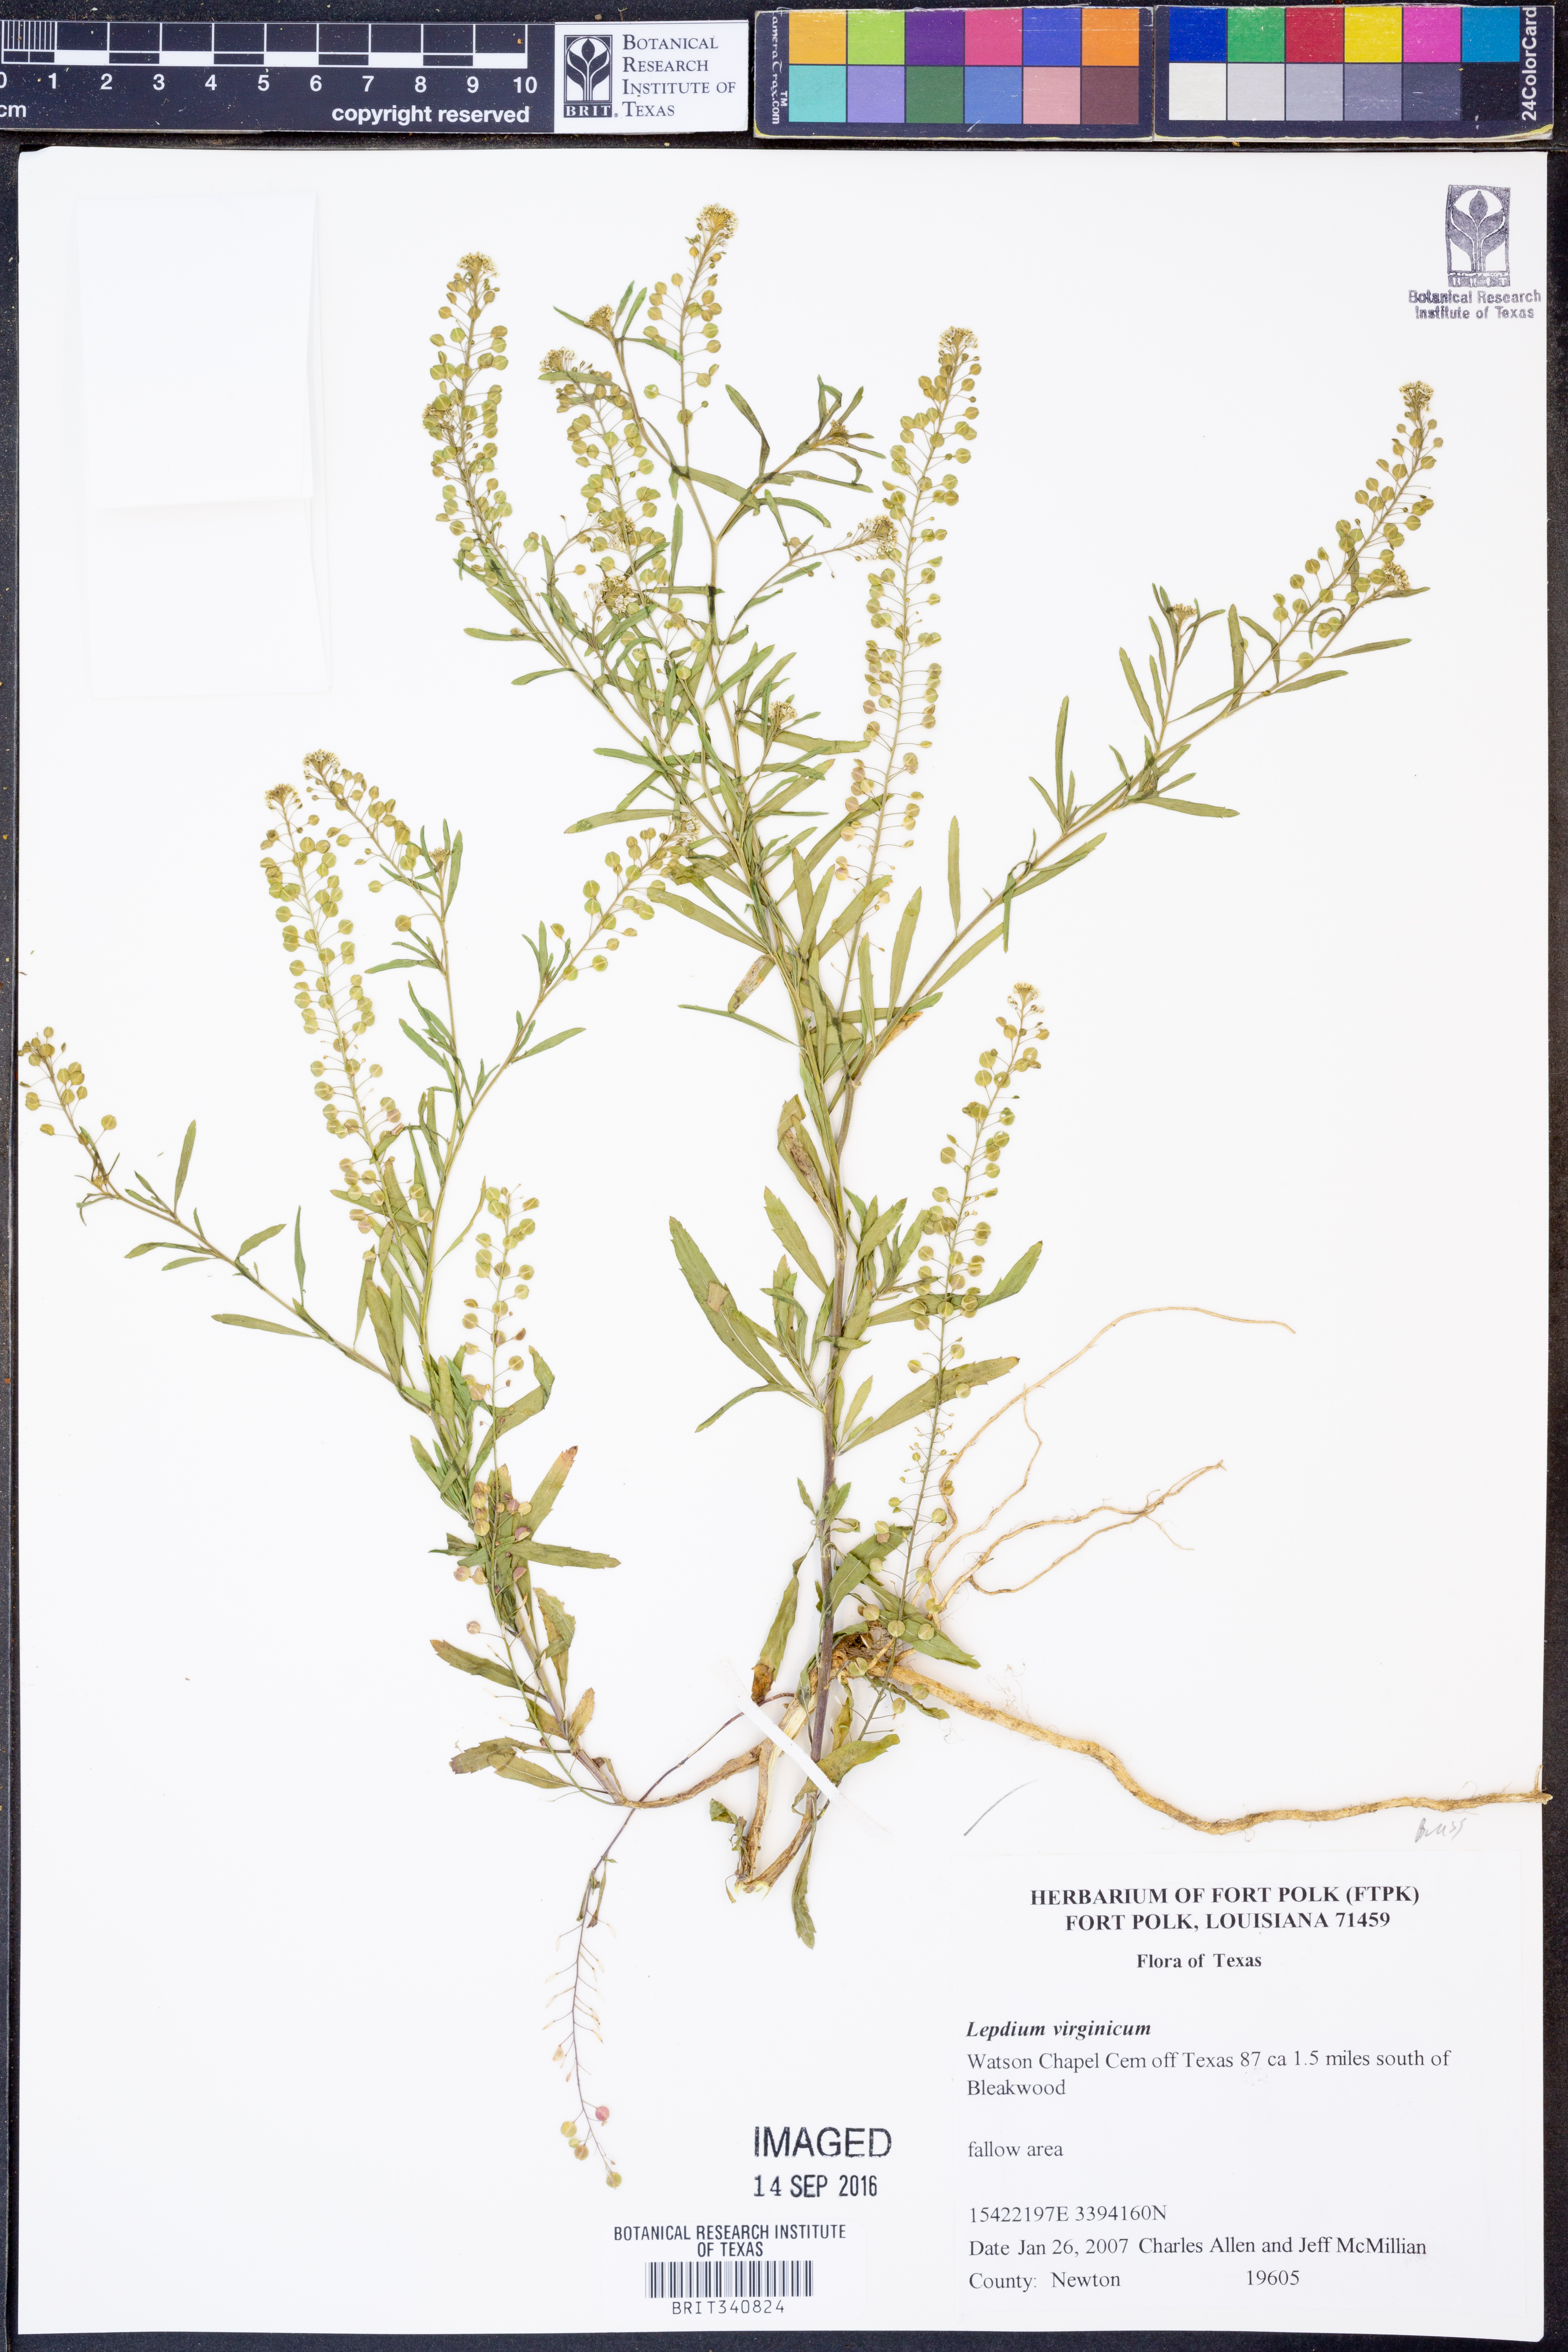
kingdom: Plantae
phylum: Tracheophyta
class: Magnoliopsida
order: Brassicales
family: Brassicaceae
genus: Lepidium
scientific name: Lepidium virginicum
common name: Least pepperwort
